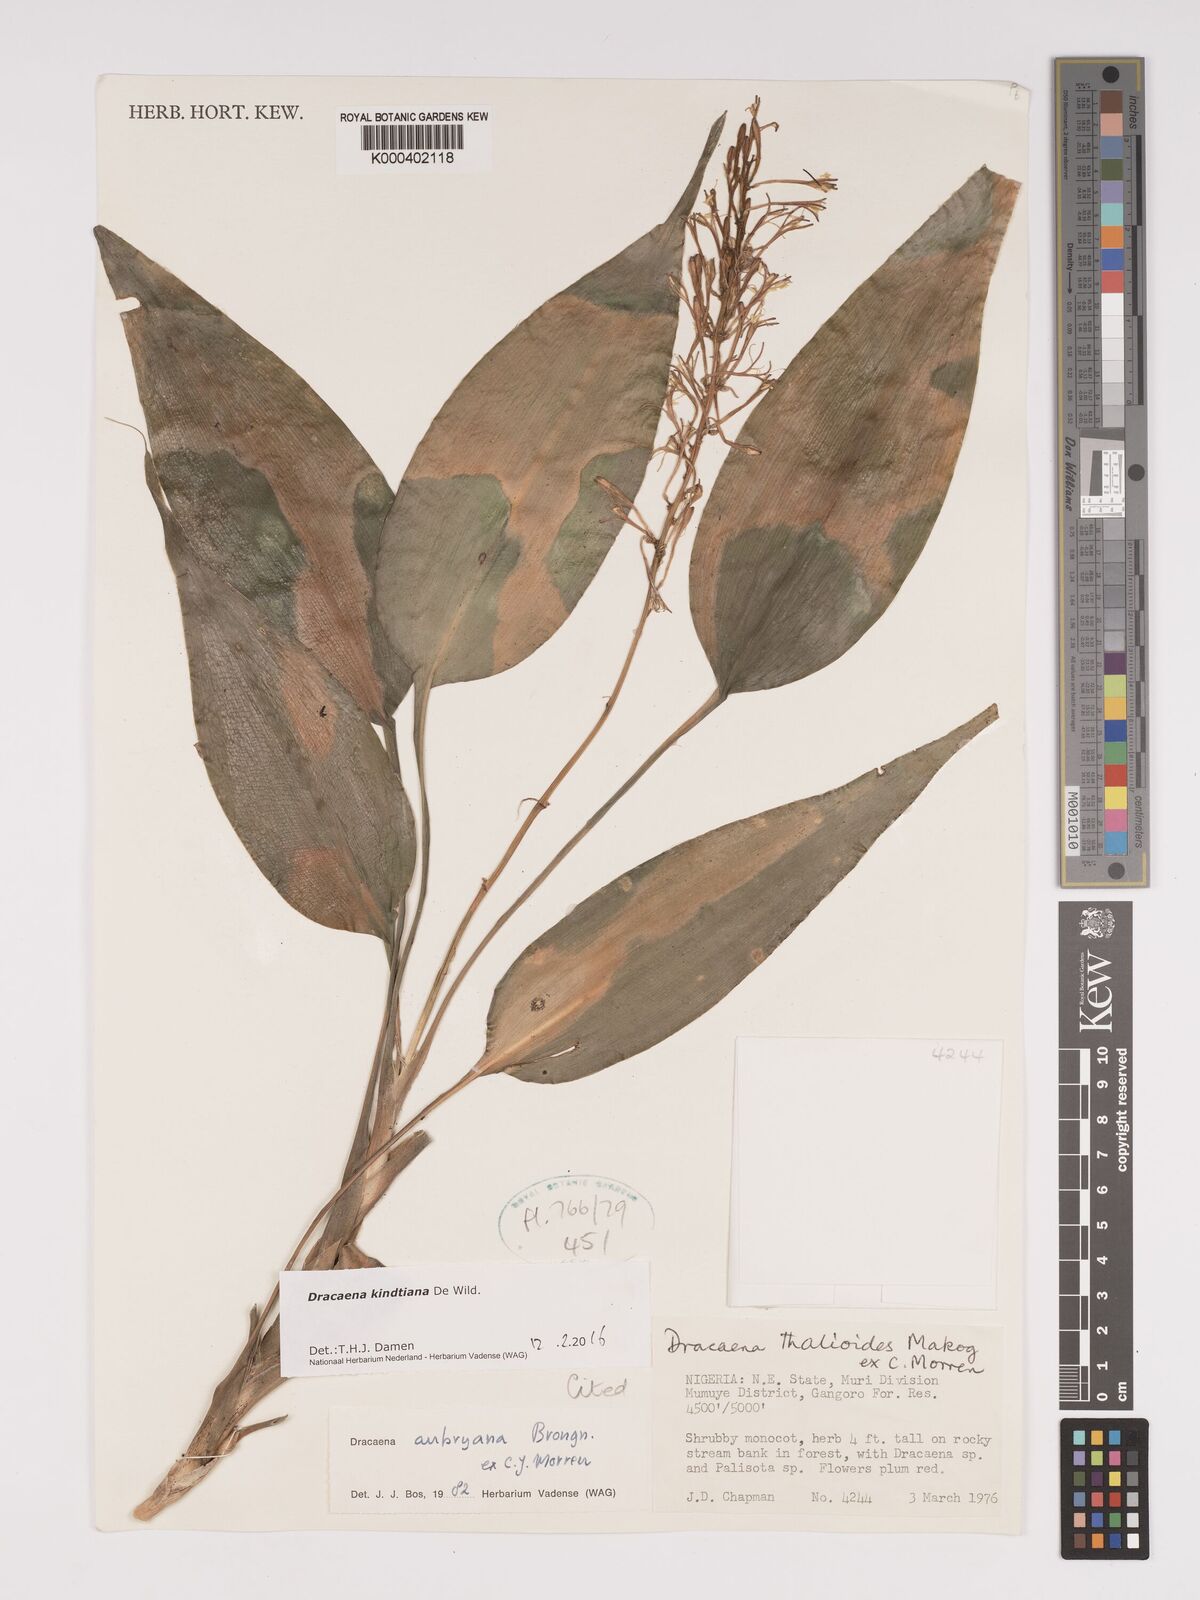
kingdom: Plantae
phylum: Tracheophyta
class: Liliopsida
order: Asparagales
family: Asparagaceae
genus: Dracaena
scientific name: Dracaena kindtiana
